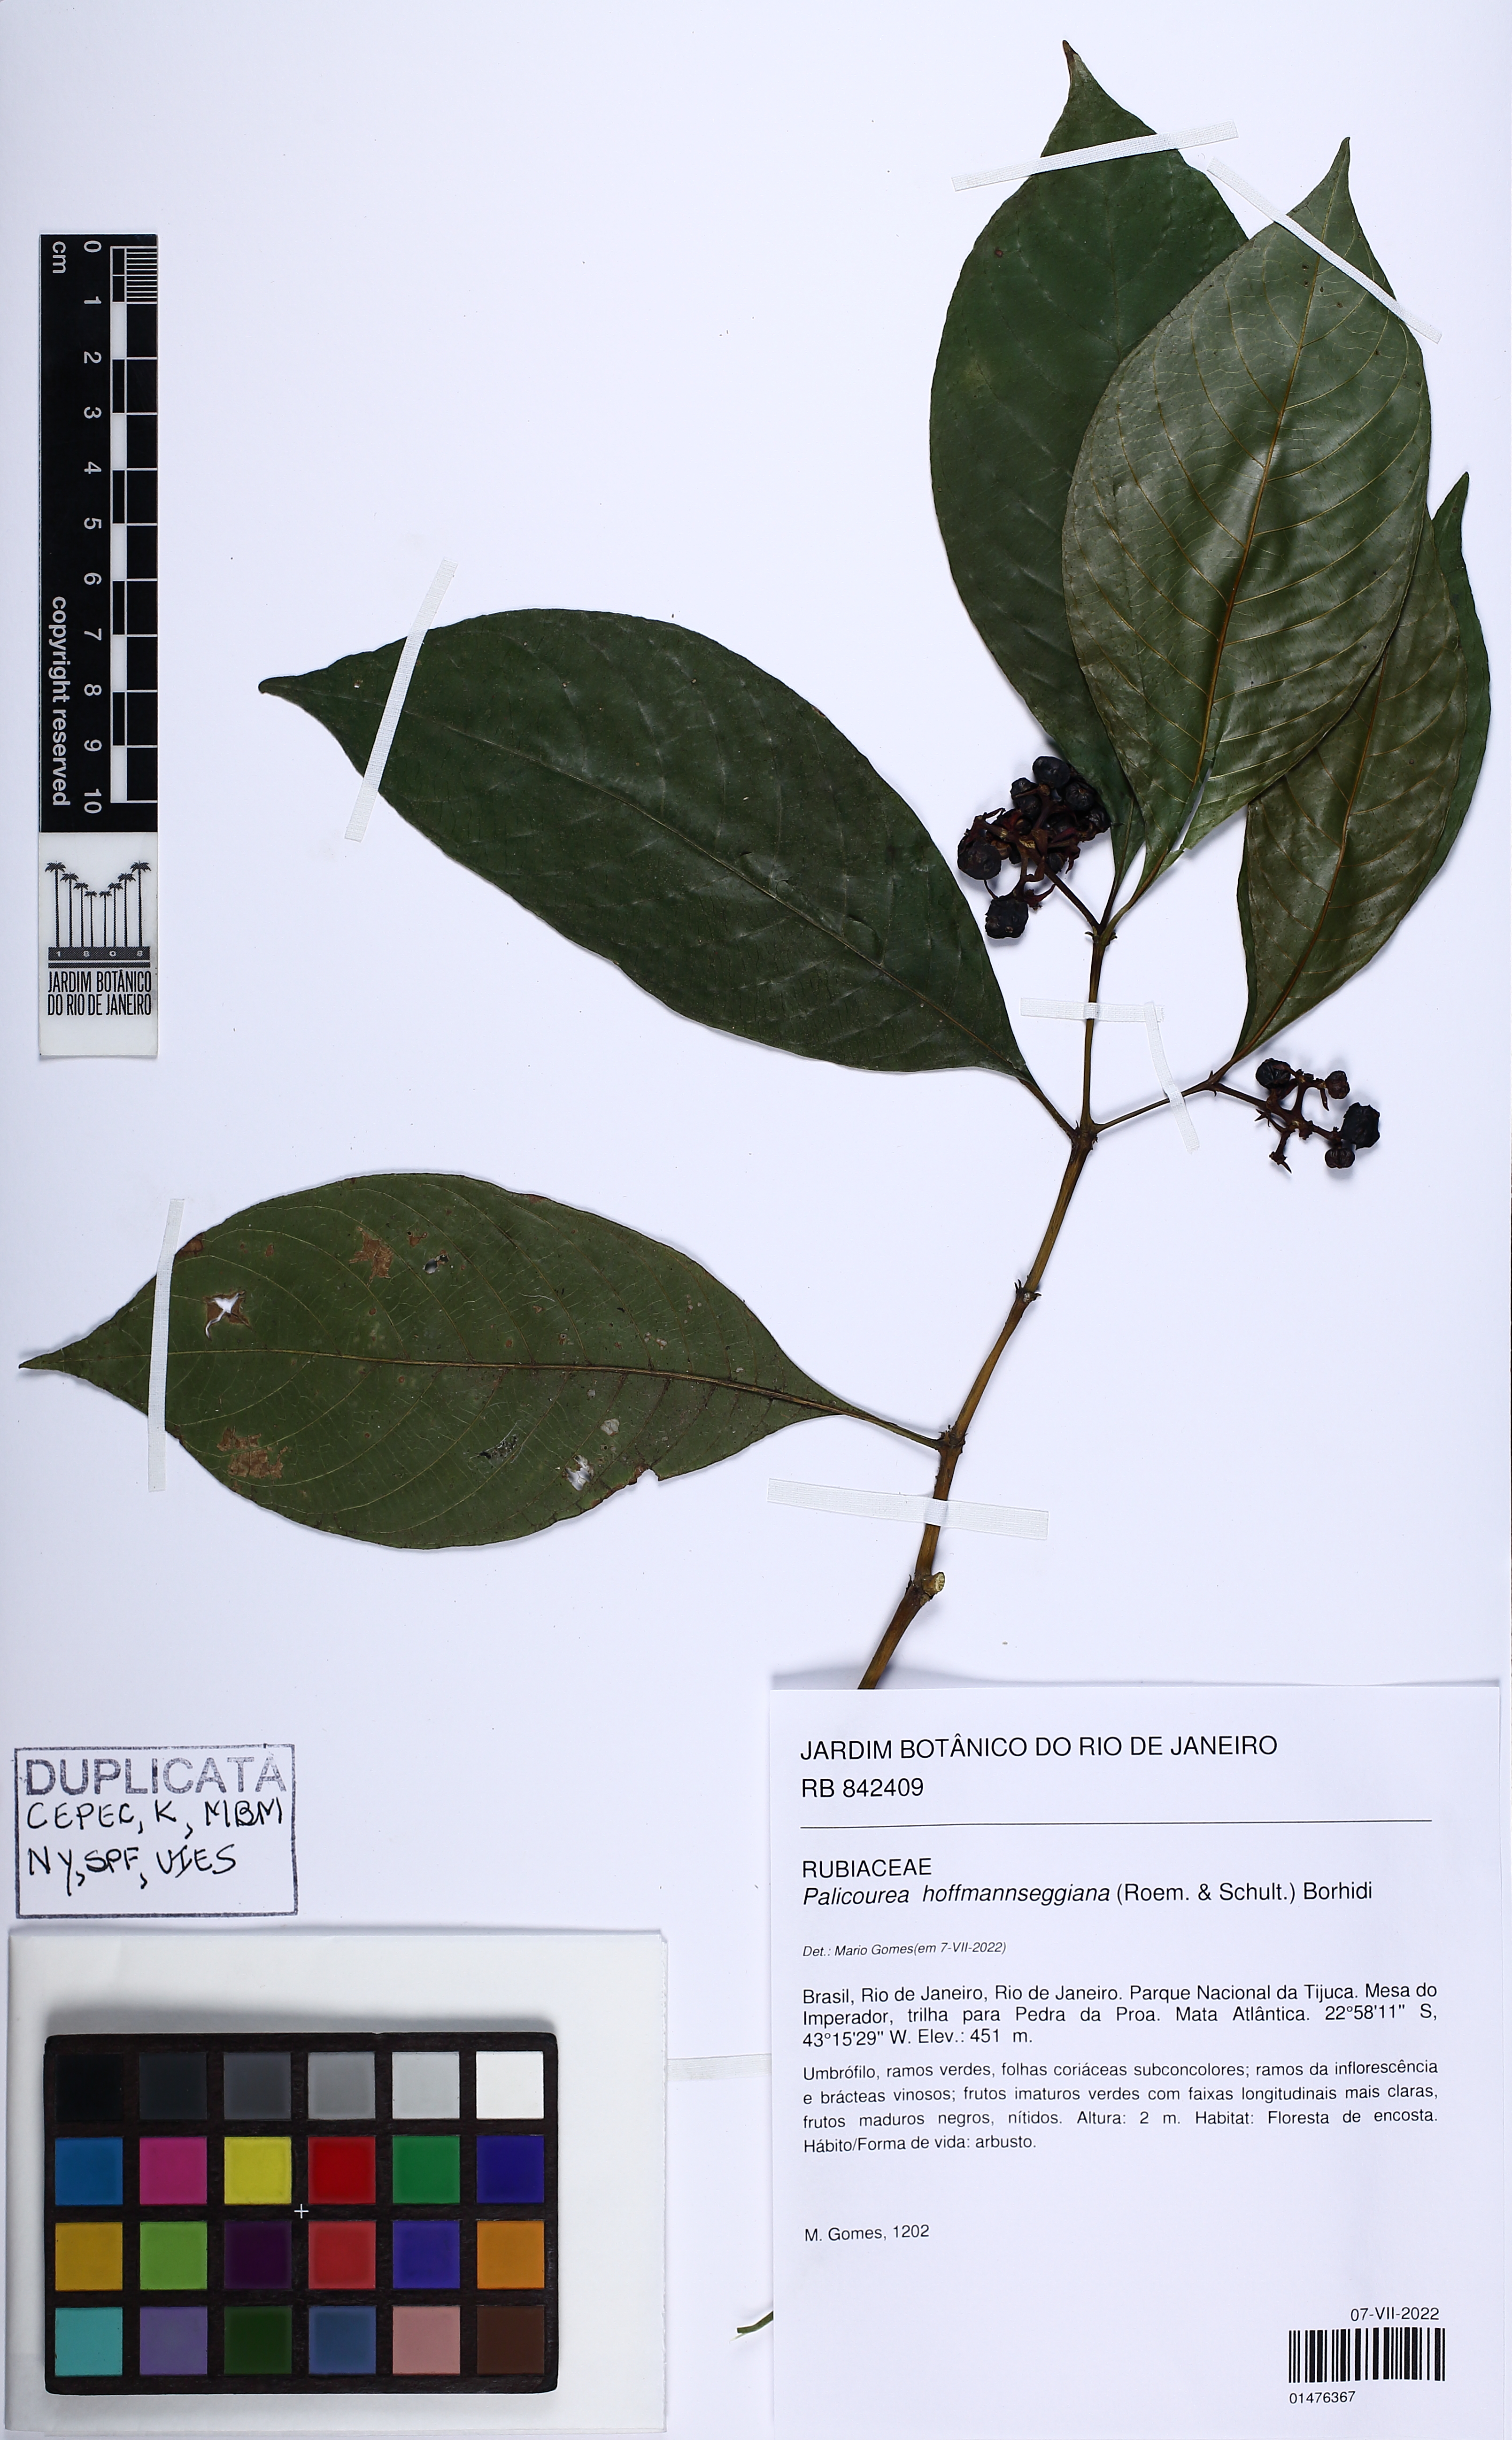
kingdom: Plantae
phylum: Tracheophyta
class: Magnoliopsida
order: Gentianales
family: Rubiaceae
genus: Palicourea
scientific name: Palicourea hoffmannseggiana
